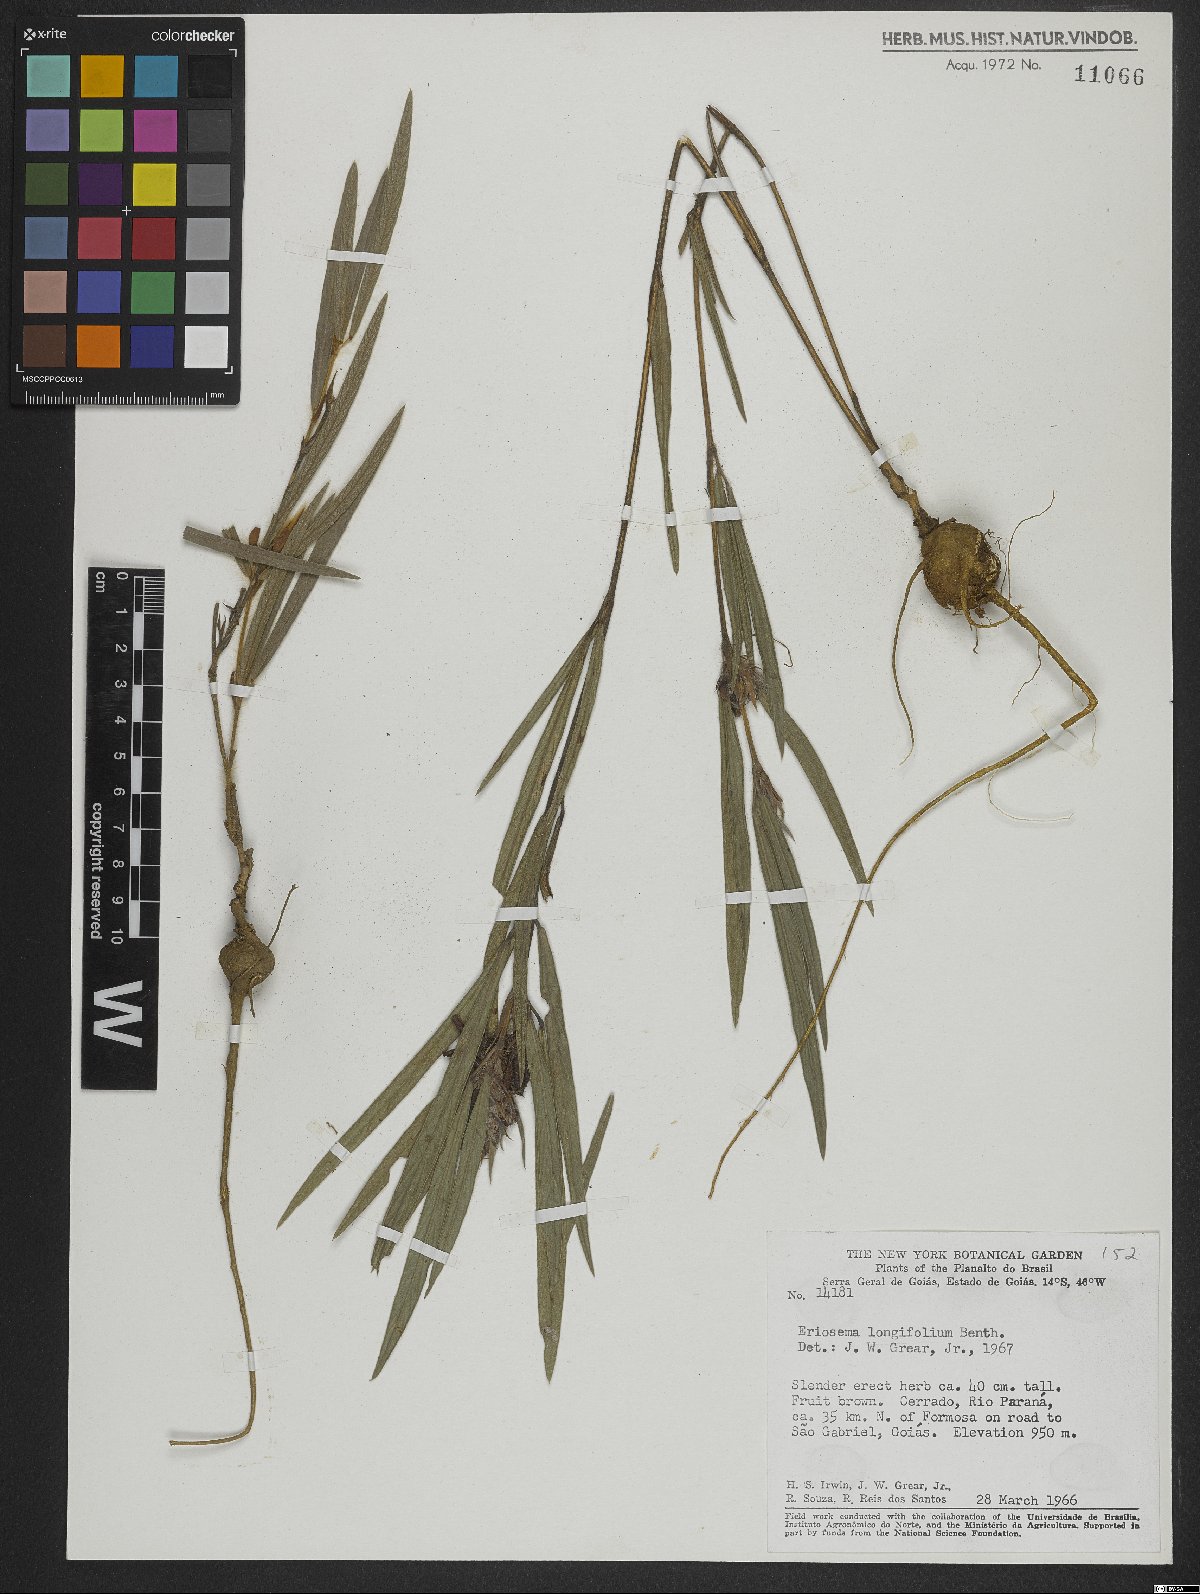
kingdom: Plantae
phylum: Tracheophyta
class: Magnoliopsida
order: Fabales
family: Fabaceae
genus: Eriosema
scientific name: Eriosema longifolium
